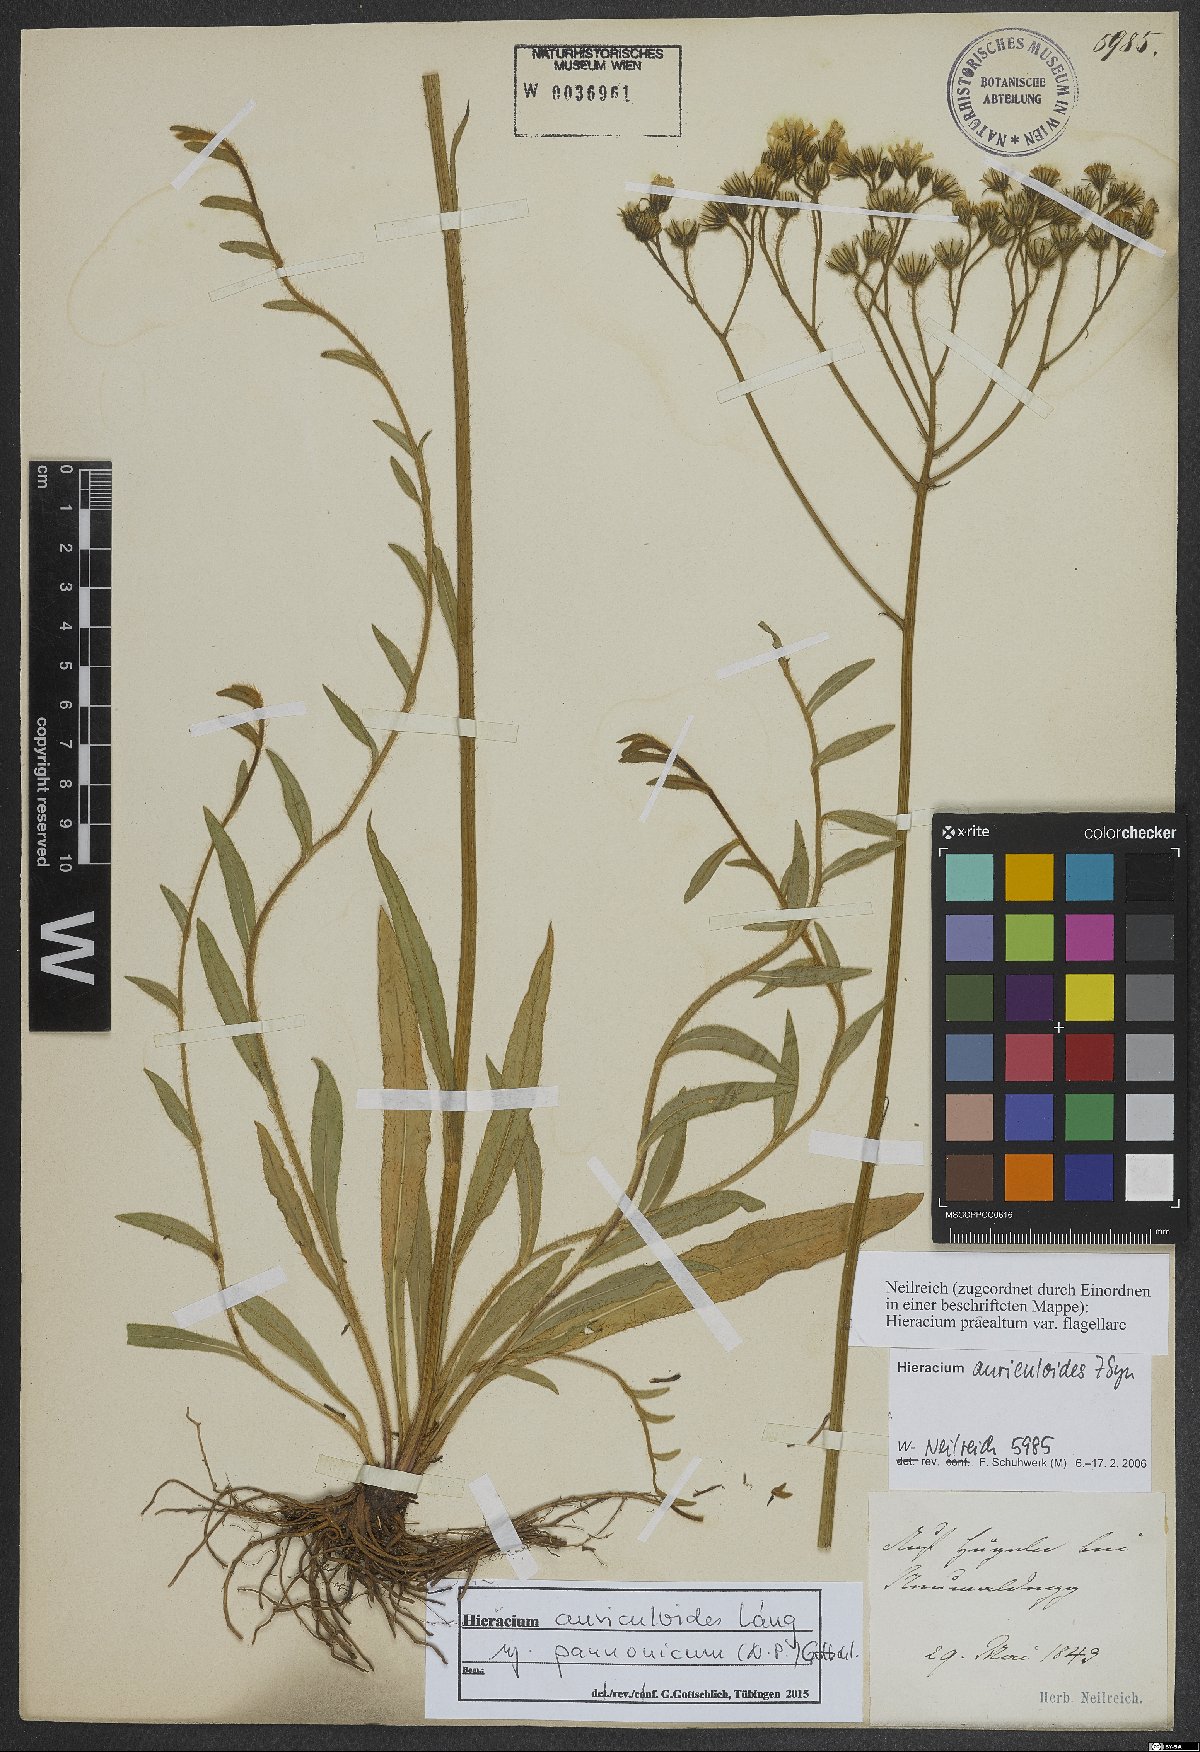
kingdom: Plantae
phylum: Tracheophyta
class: Magnoliopsida
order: Asterales
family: Asteraceae
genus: Pilosella
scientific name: Pilosella auriculoides
